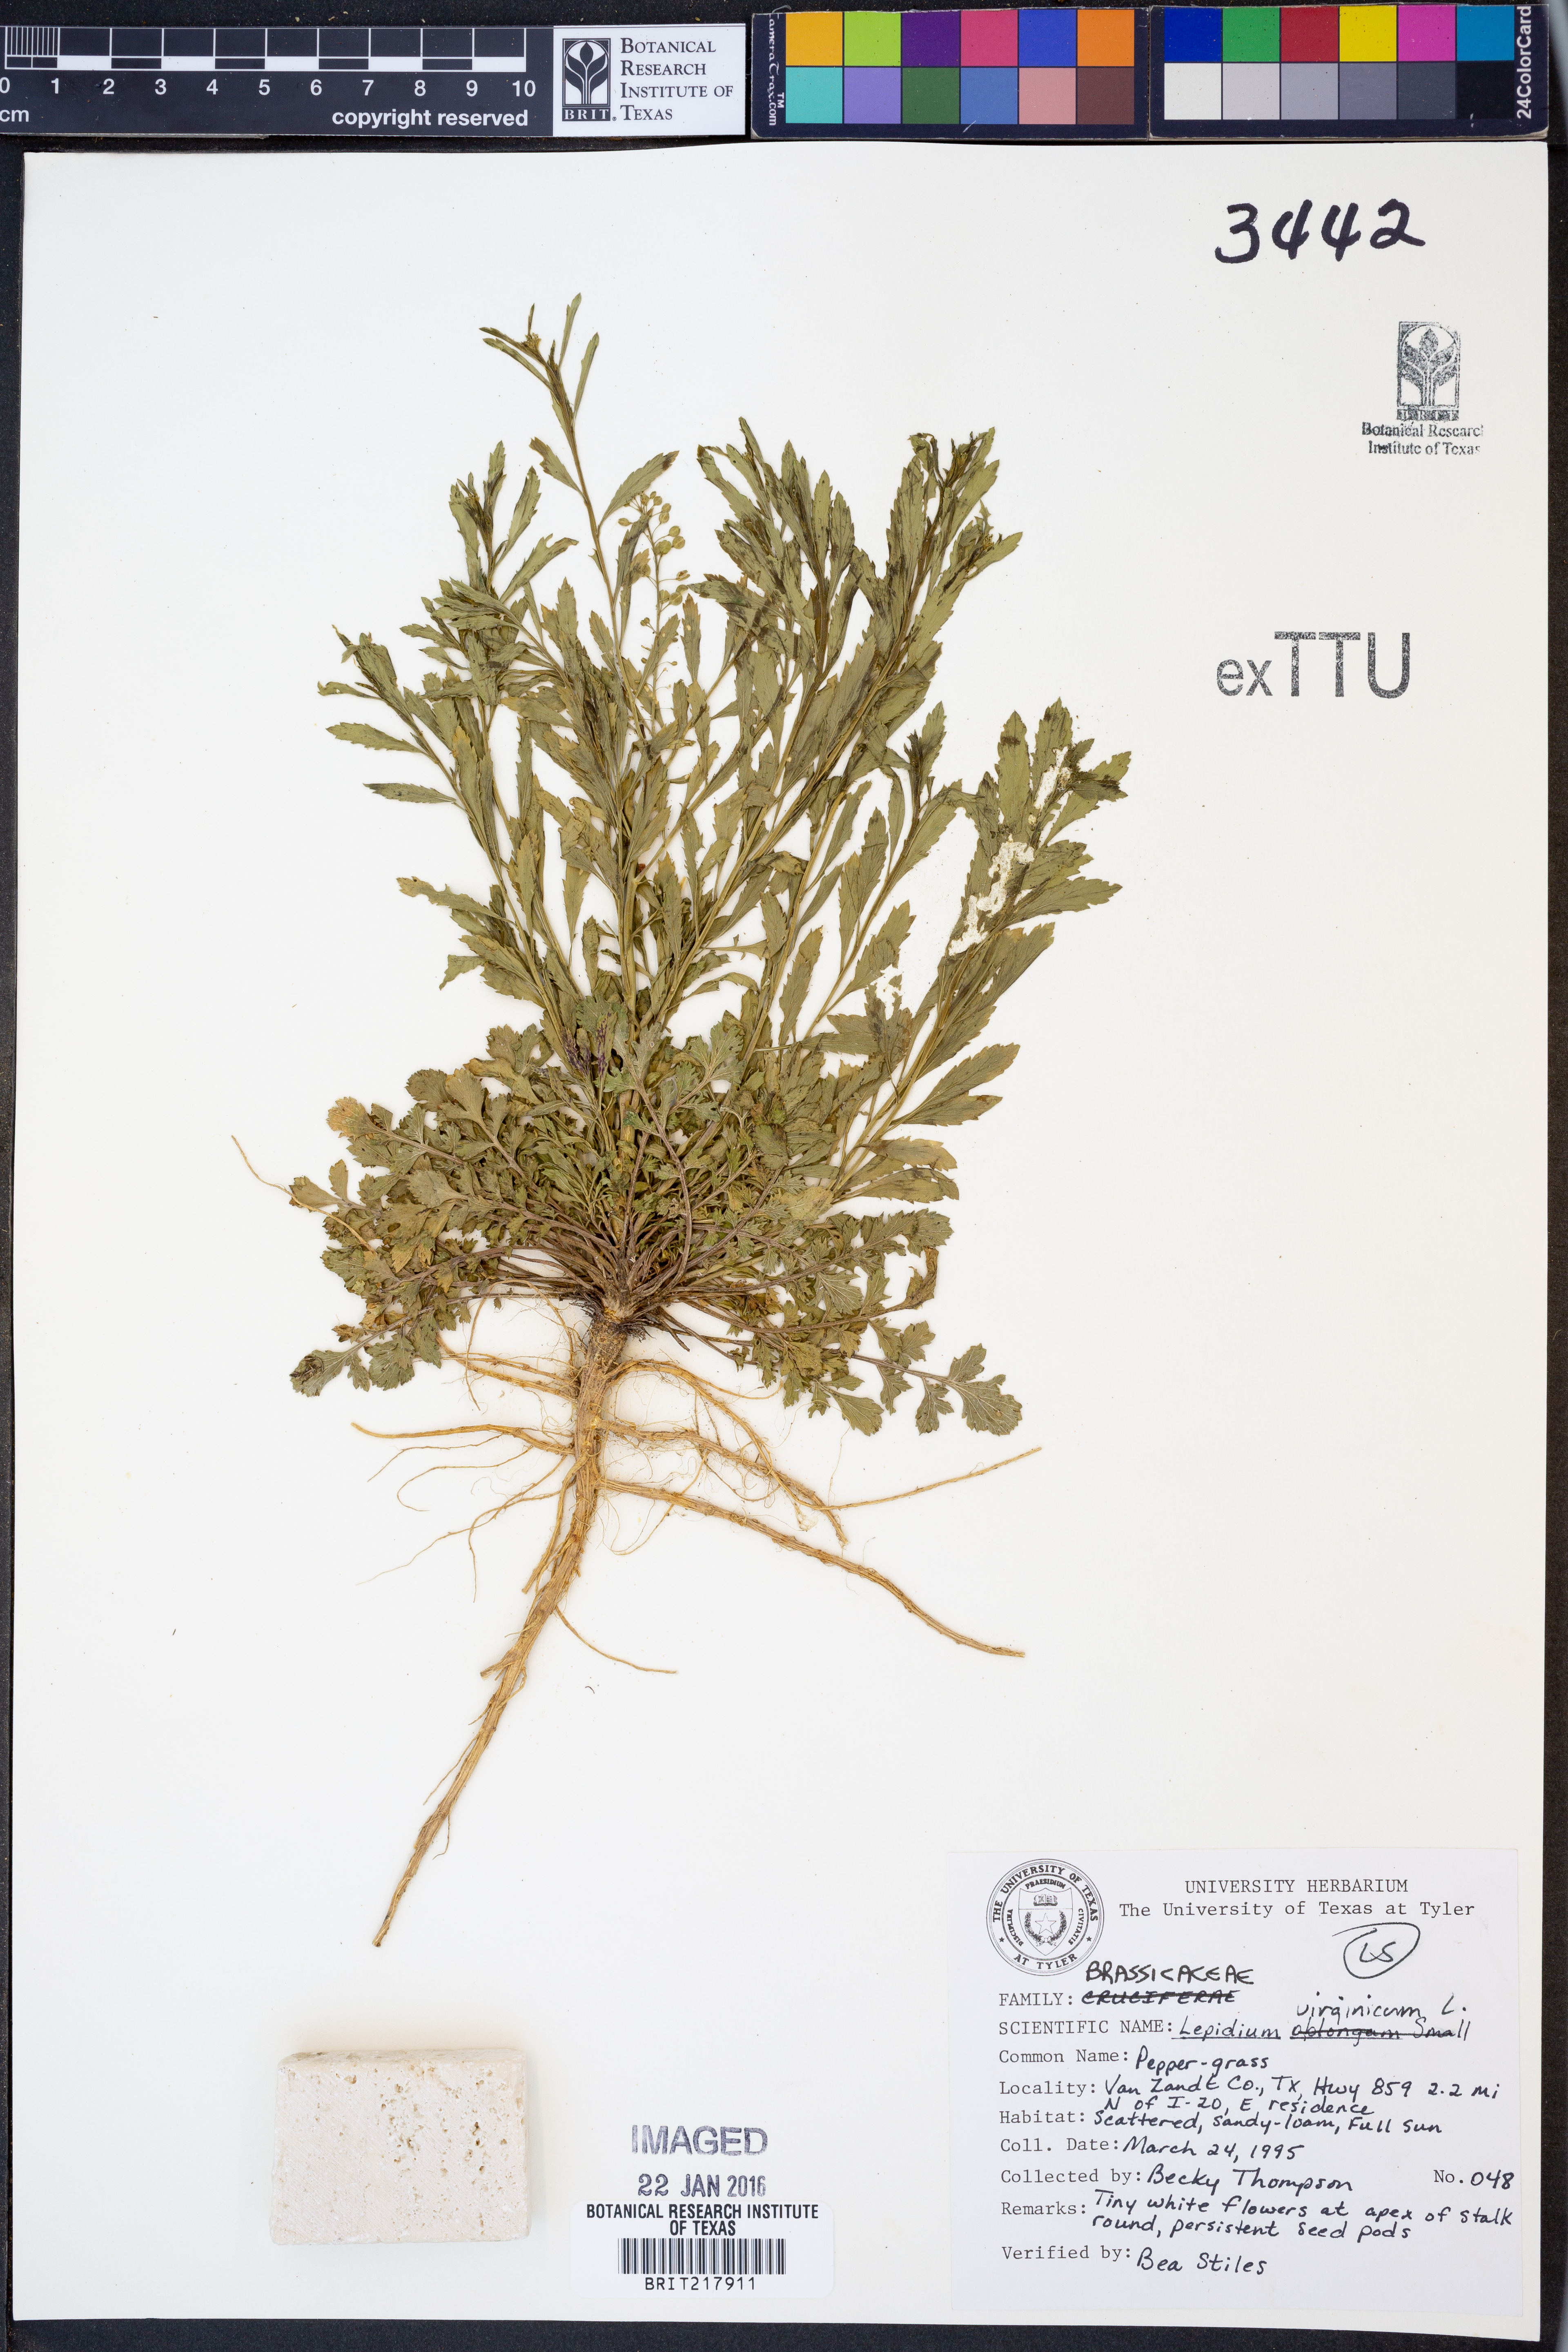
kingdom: Plantae
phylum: Tracheophyta
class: Magnoliopsida
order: Brassicales
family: Brassicaceae
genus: Lepidium
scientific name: Lepidium virginicum
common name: Least pepperwort
